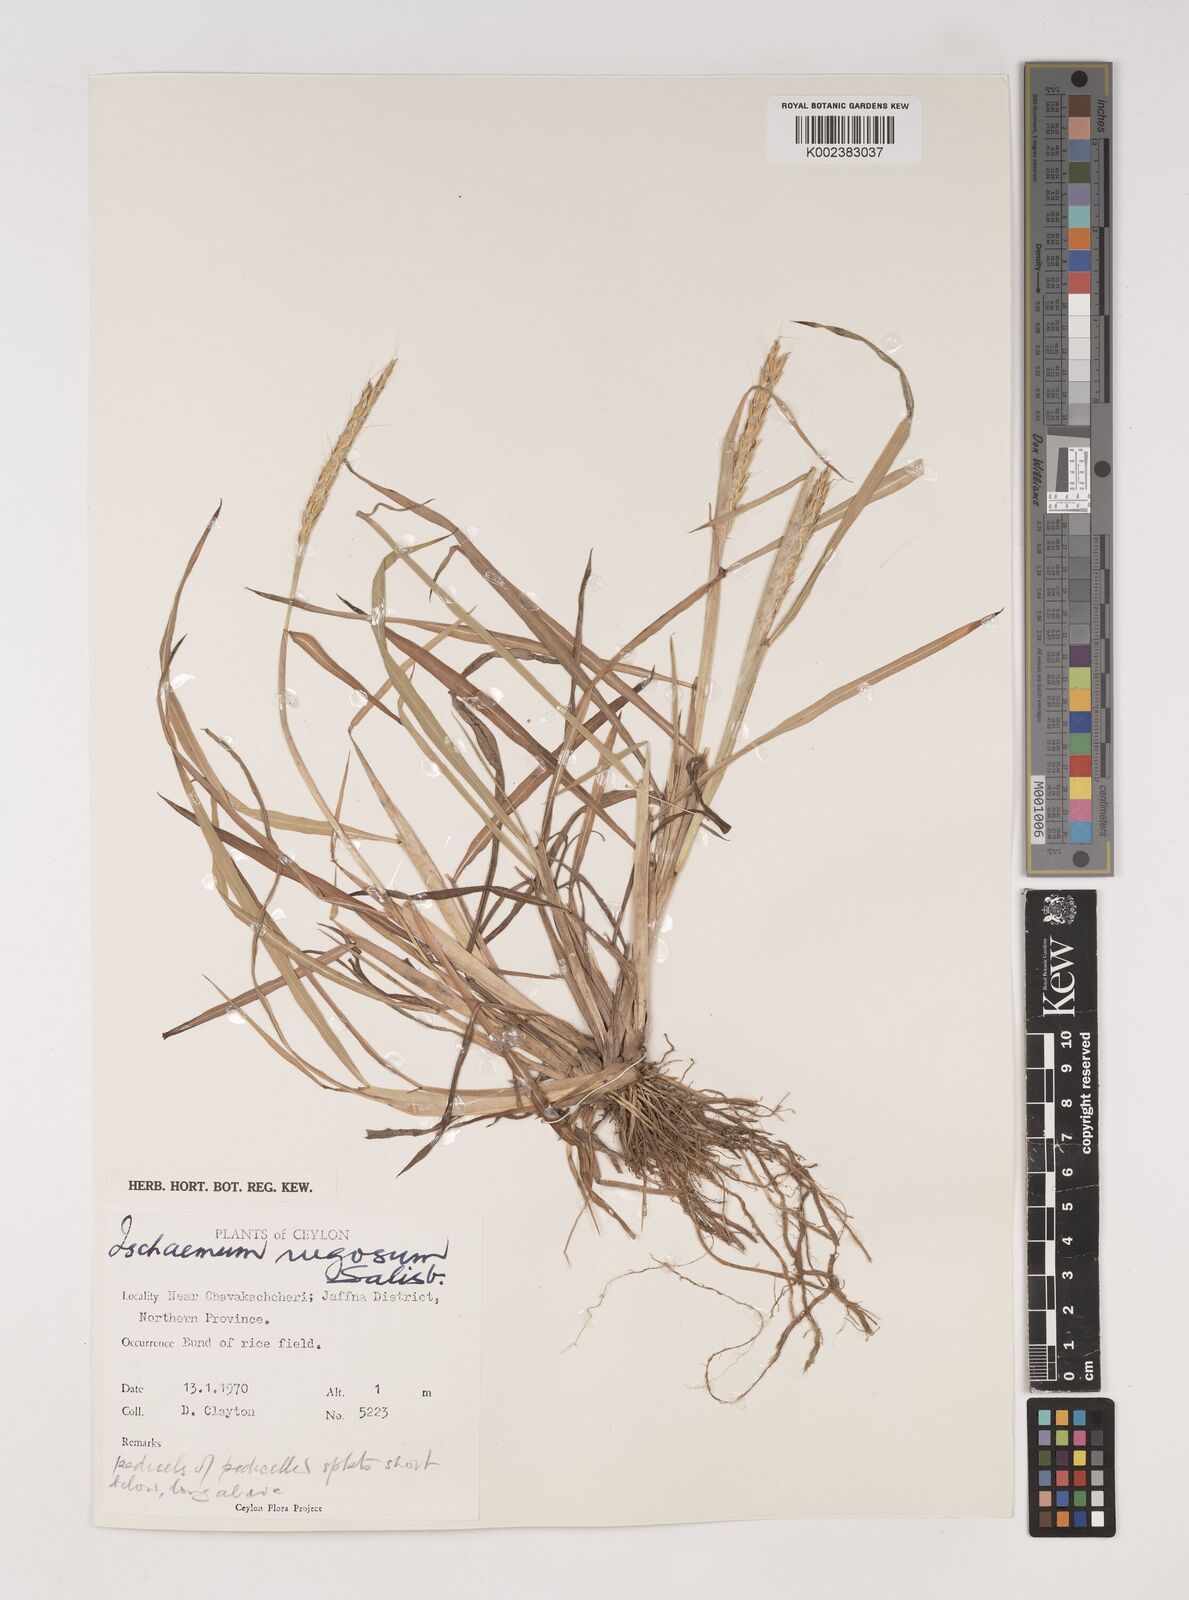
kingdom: Plantae
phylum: Tracheophyta
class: Liliopsida
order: Poales
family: Poaceae
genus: Ischaemum
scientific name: Ischaemum rugosum
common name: Saramatta grass
